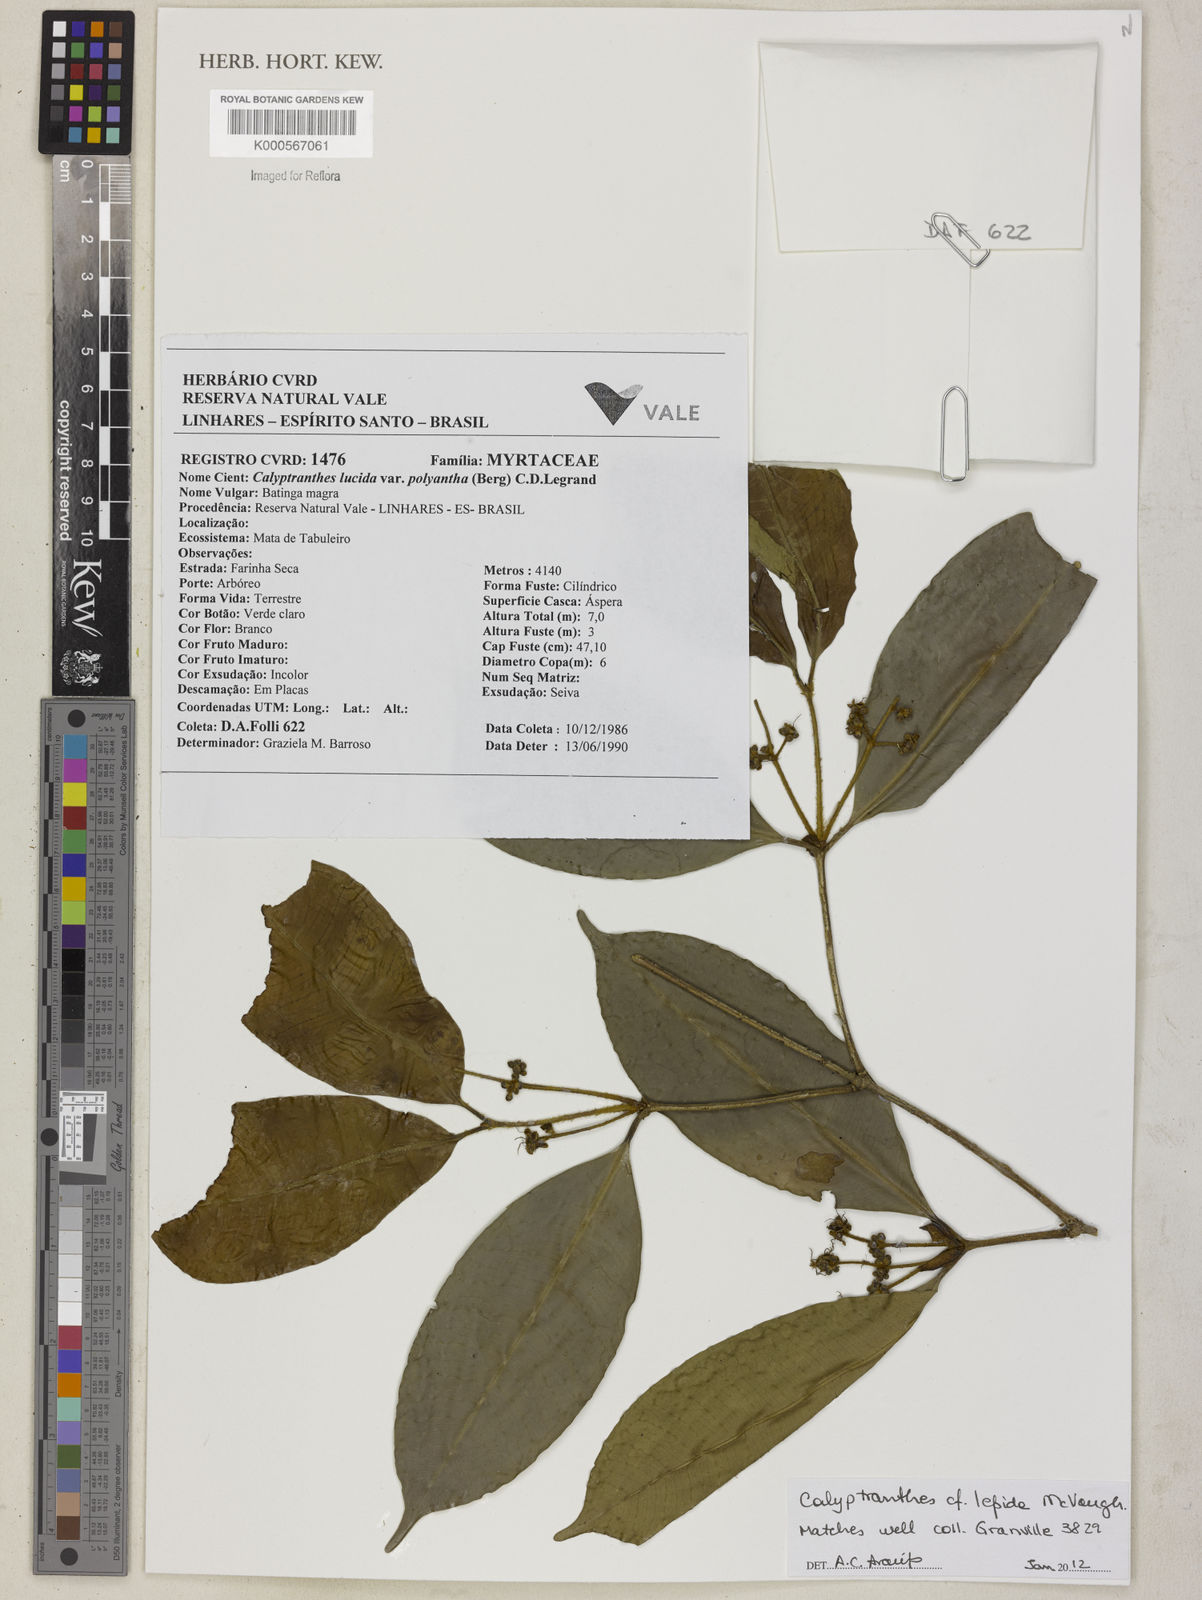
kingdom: Plantae
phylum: Tracheophyta
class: Magnoliopsida
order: Myrtales
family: Myrtaceae
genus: Myrcia
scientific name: Myrcia neolucida
